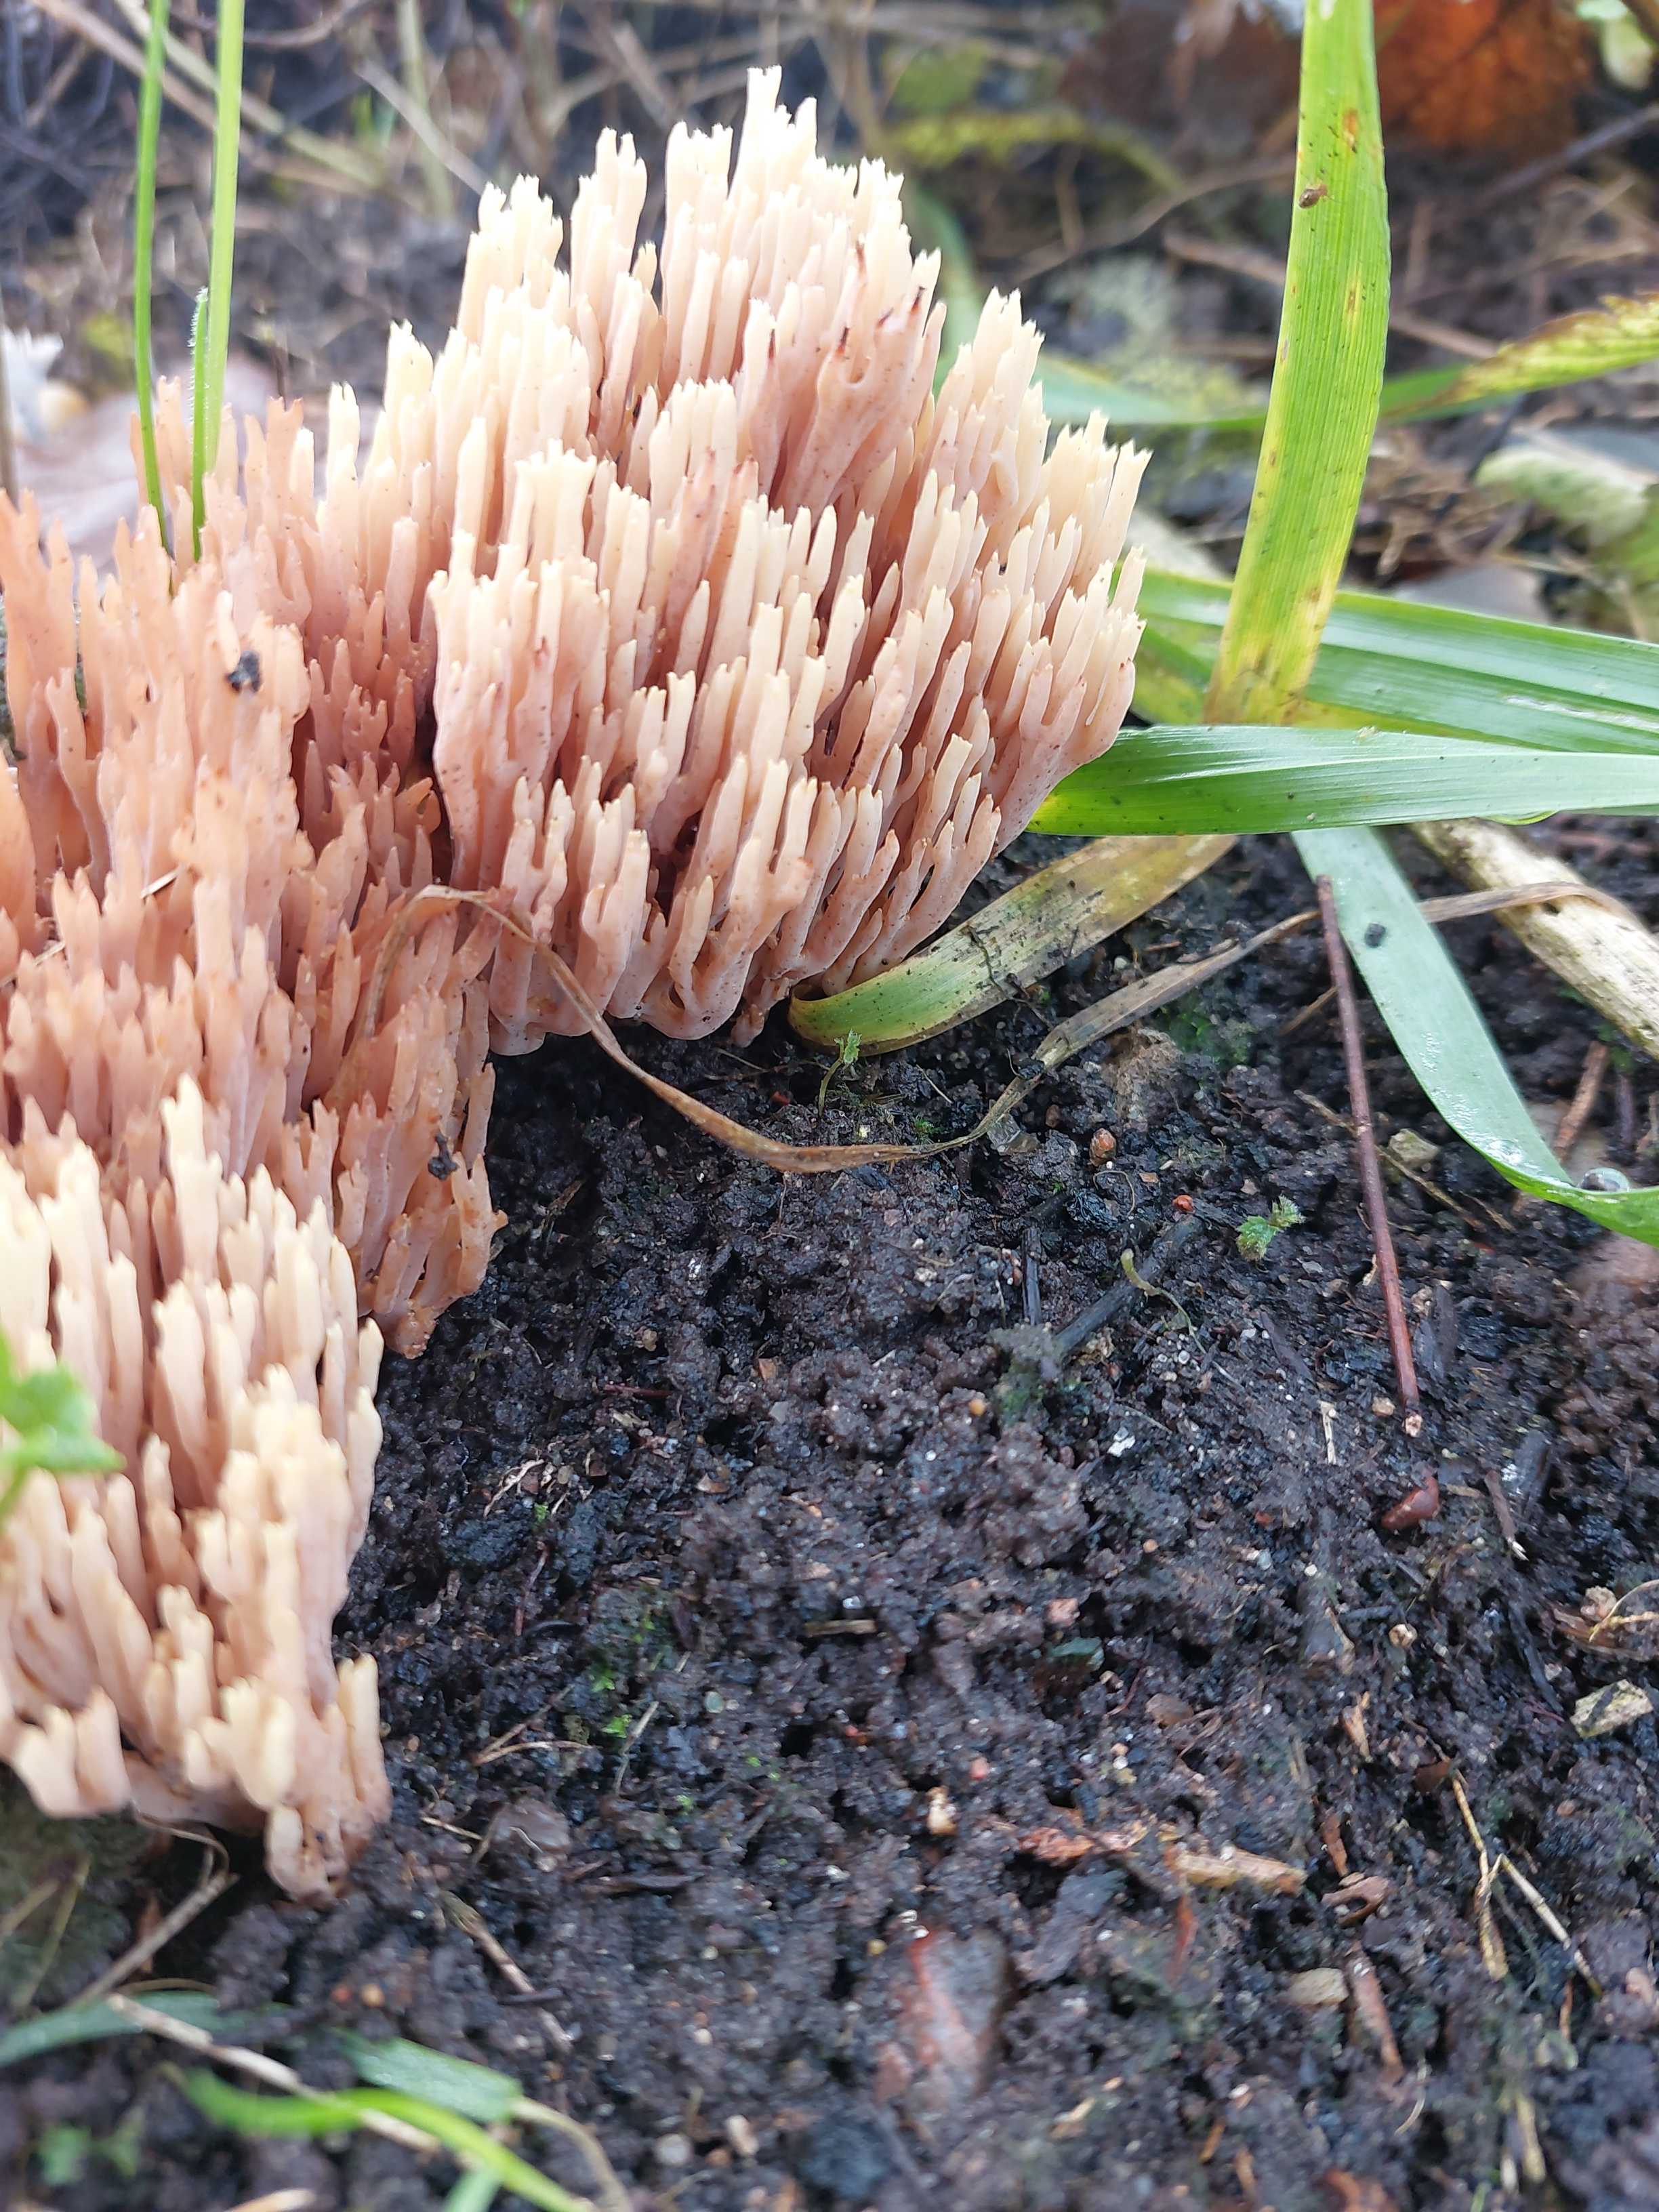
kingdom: Fungi
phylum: Basidiomycota
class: Agaricomycetes
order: Gomphales
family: Gomphaceae
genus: Ramaria
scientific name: Ramaria stricta
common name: rank koralsvamp
